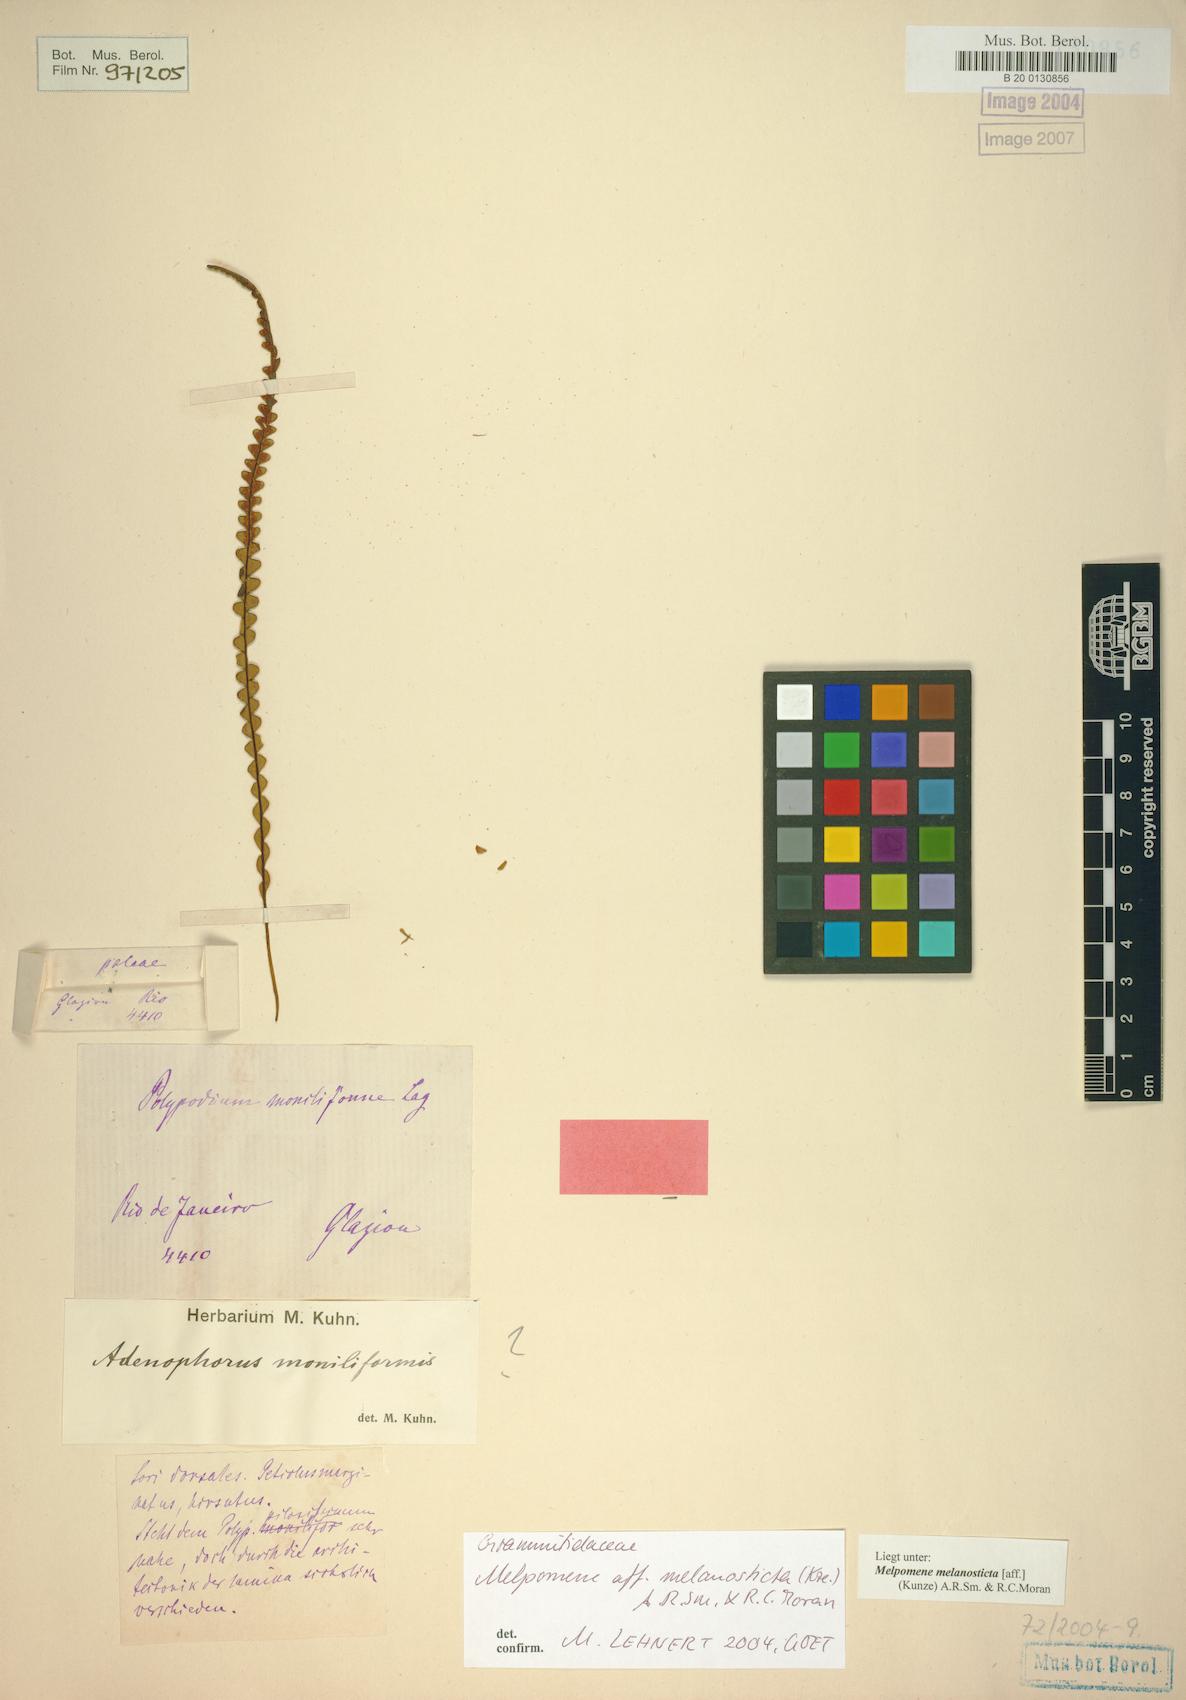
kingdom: Plantae
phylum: Tracheophyta
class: Polypodiopsida
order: Polypodiales
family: Polypodiaceae
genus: Melpomene
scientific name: Melpomene melanosticta
